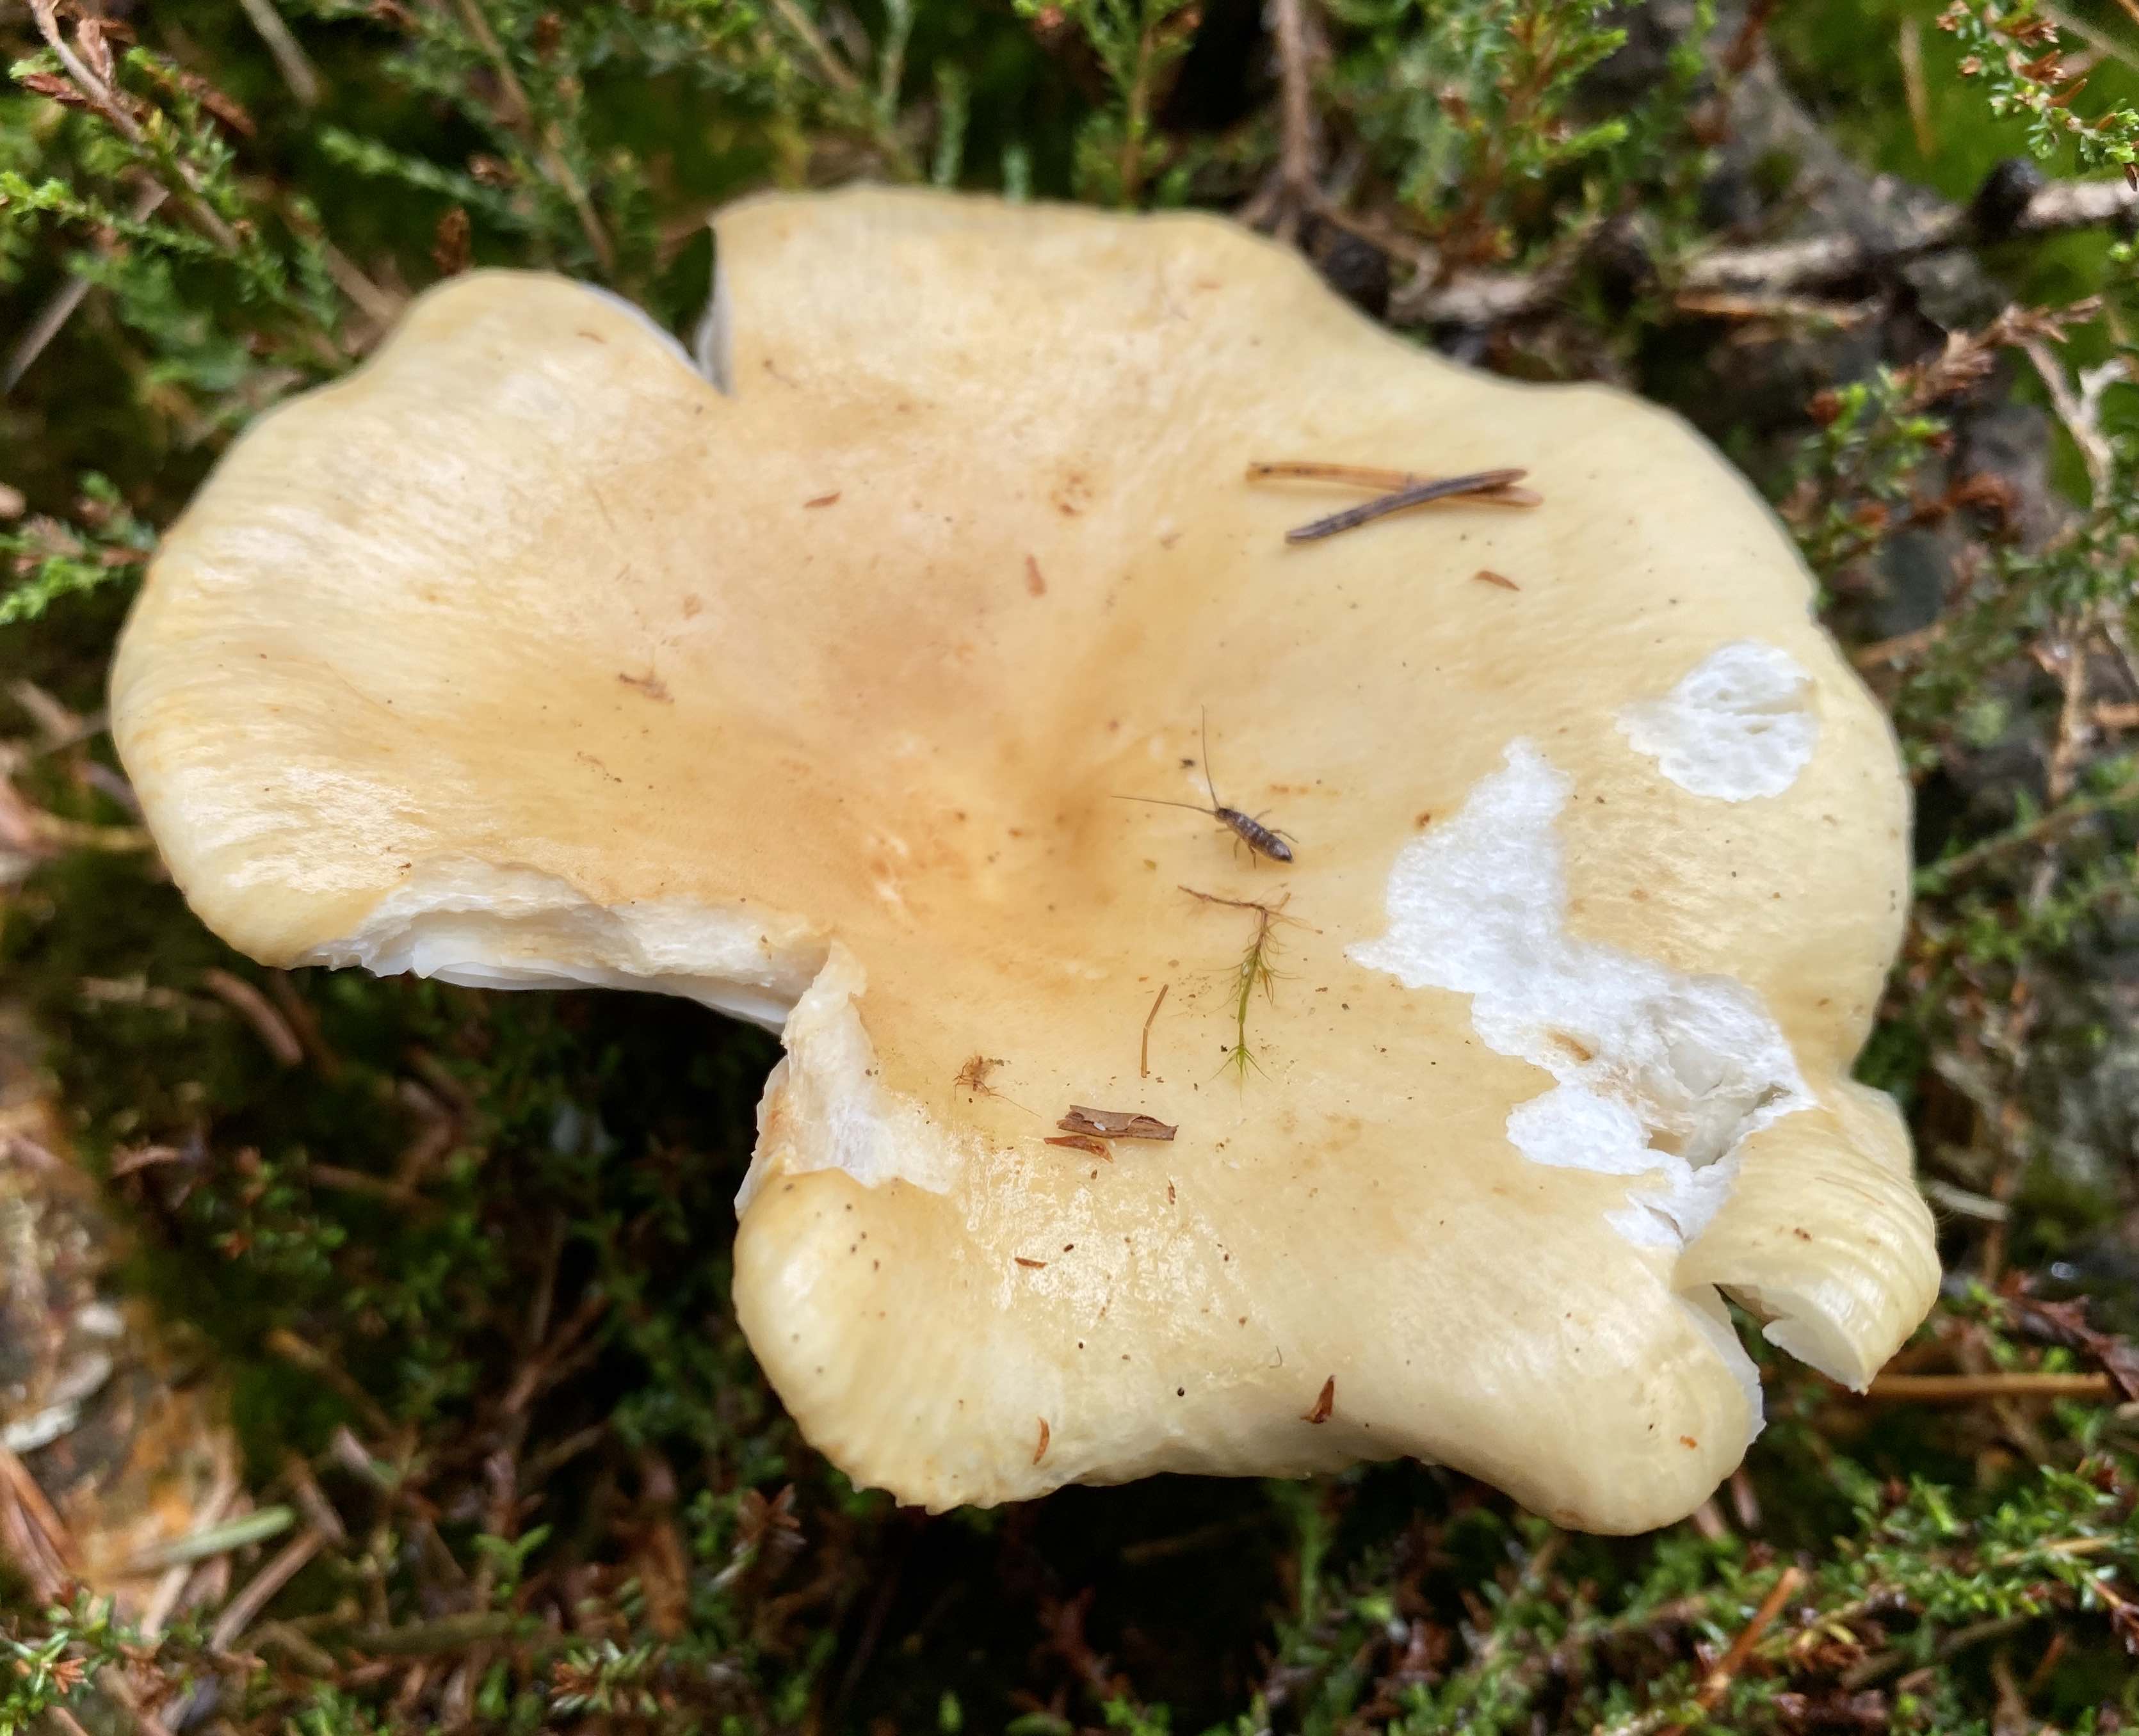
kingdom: Fungi
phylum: Basidiomycota
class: Agaricomycetes
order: Russulales
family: Russulaceae
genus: Russula
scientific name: Russula ochroleuca
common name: okkergul skørhat
